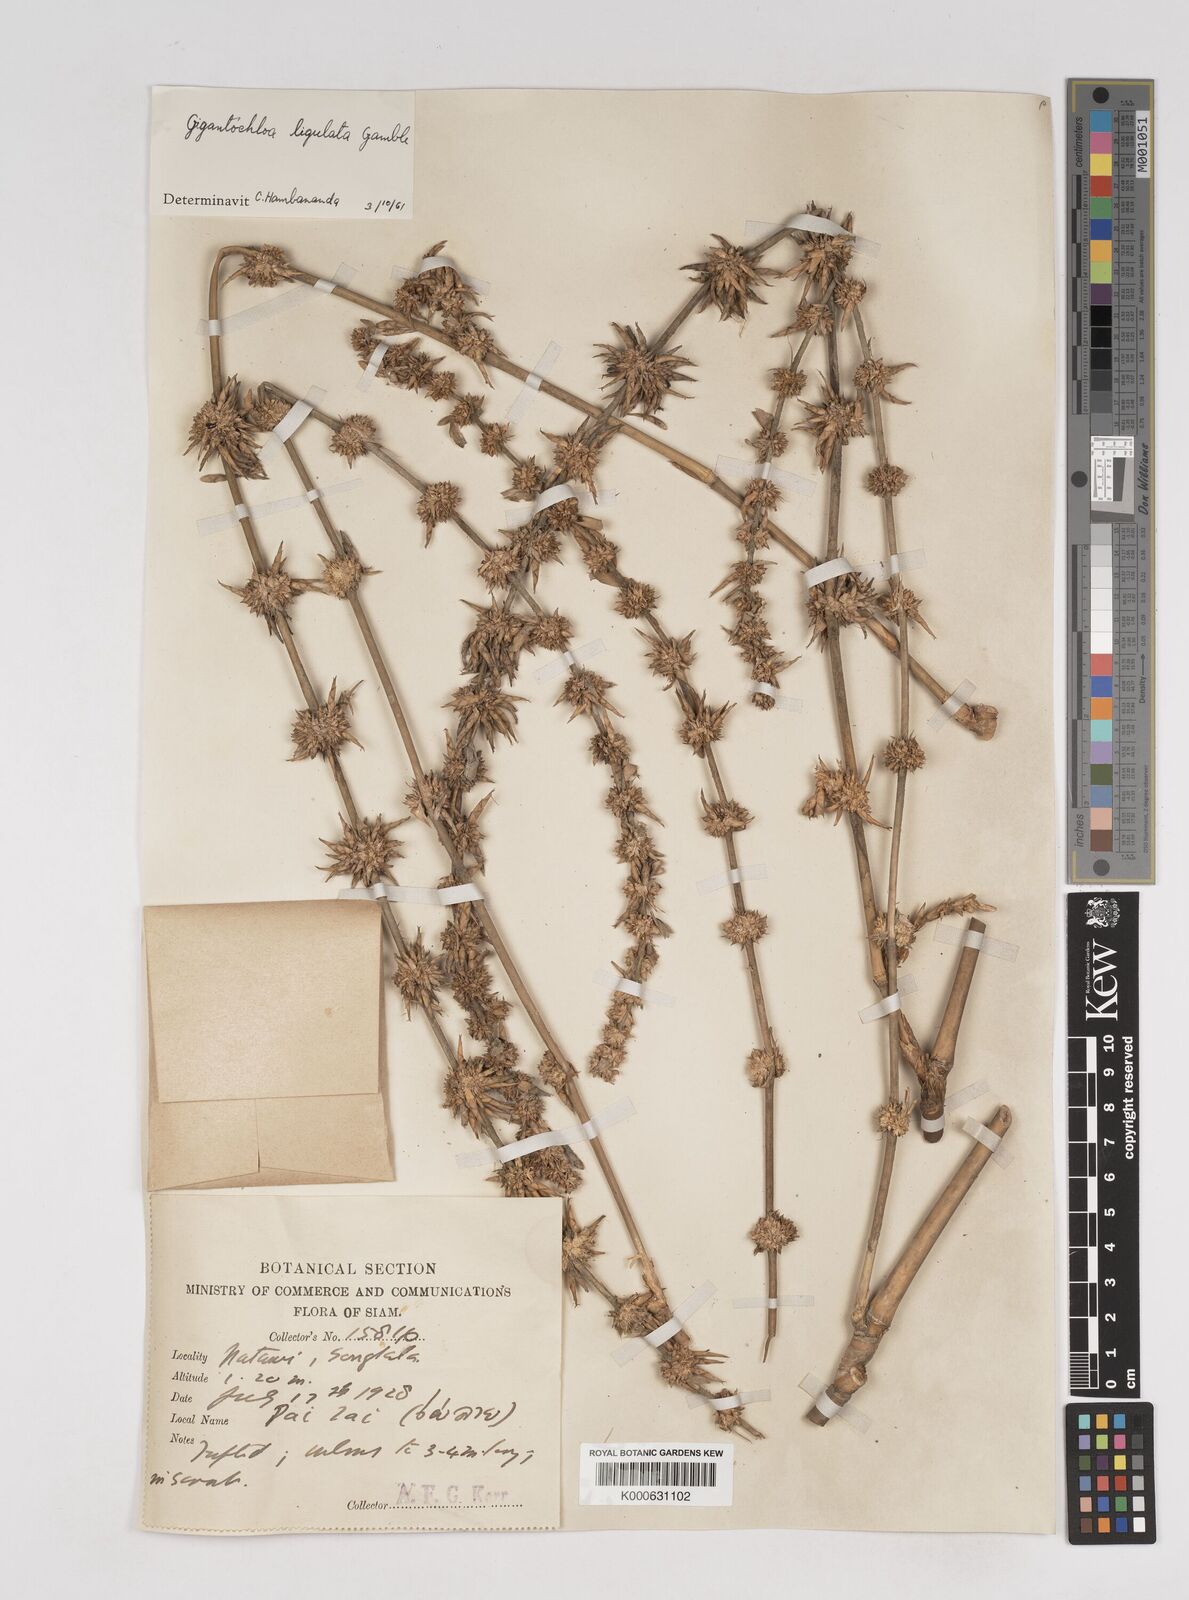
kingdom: Plantae
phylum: Tracheophyta
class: Liliopsida
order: Poales
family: Poaceae
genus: Gigantochloa
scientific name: Gigantochloa ligulata
